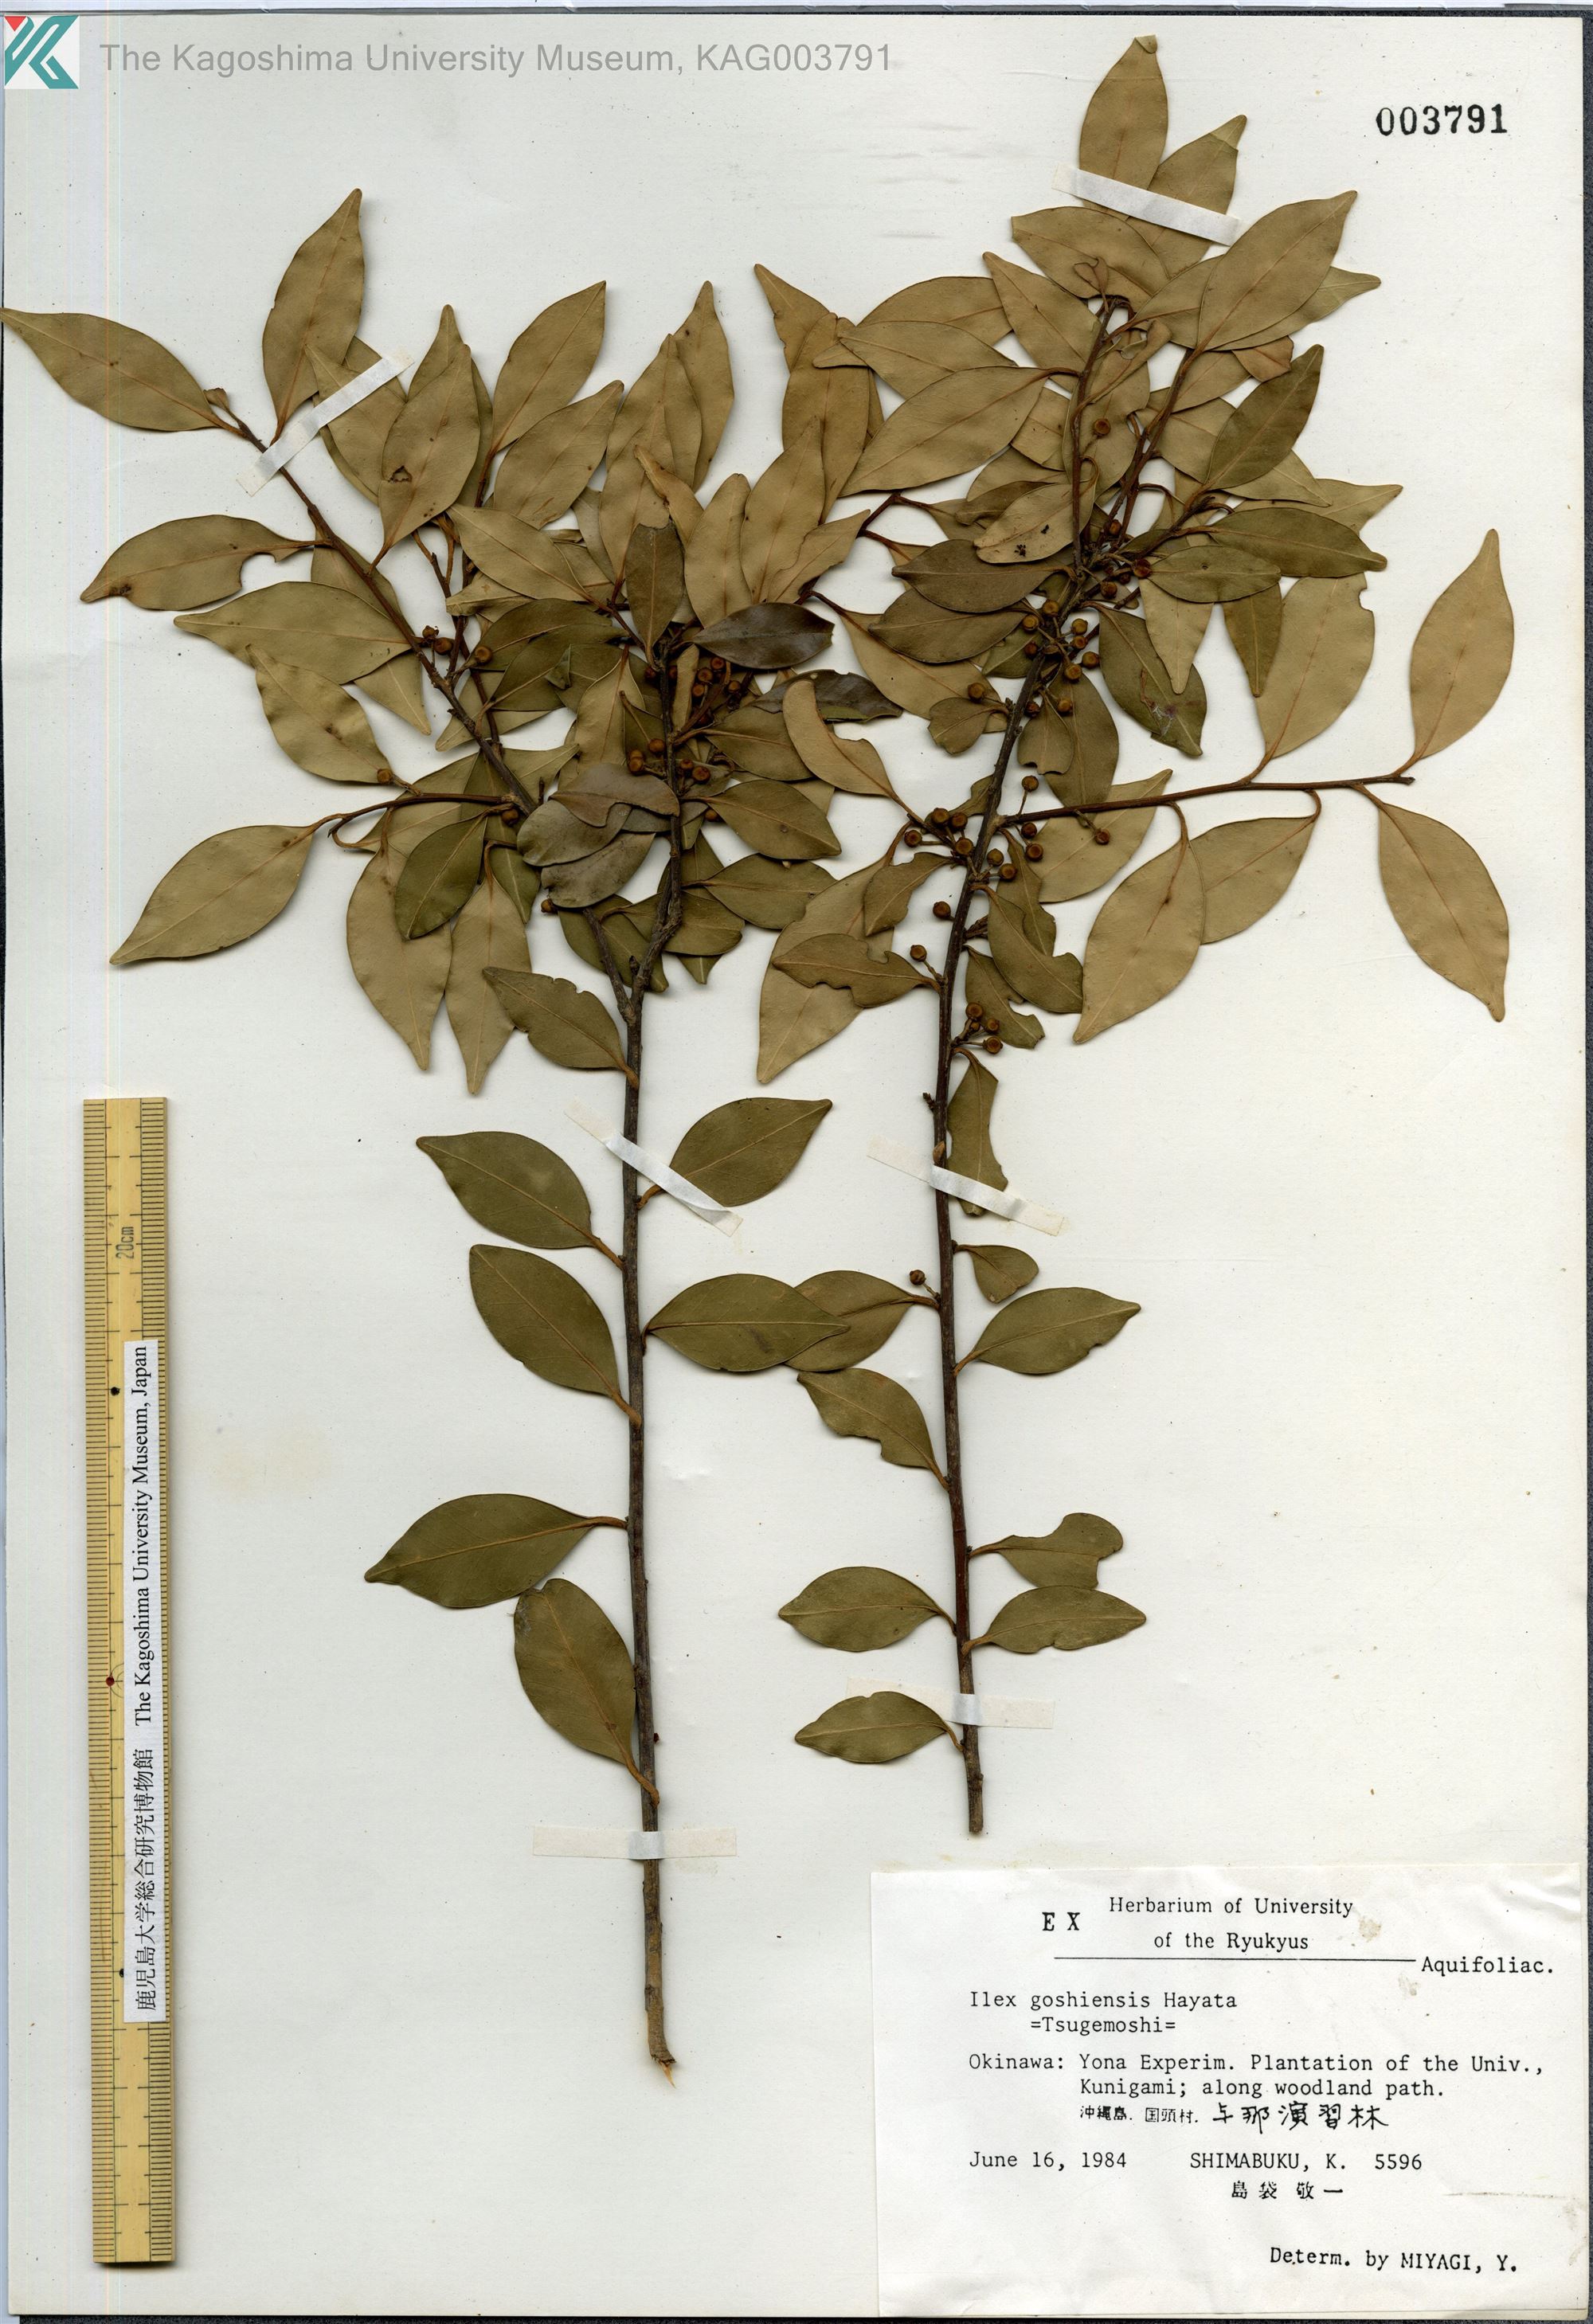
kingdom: Plantae
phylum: Tracheophyta
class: Magnoliopsida
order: Aquifoliales
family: Aquifoliaceae
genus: Ilex
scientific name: Ilex goshiensis
